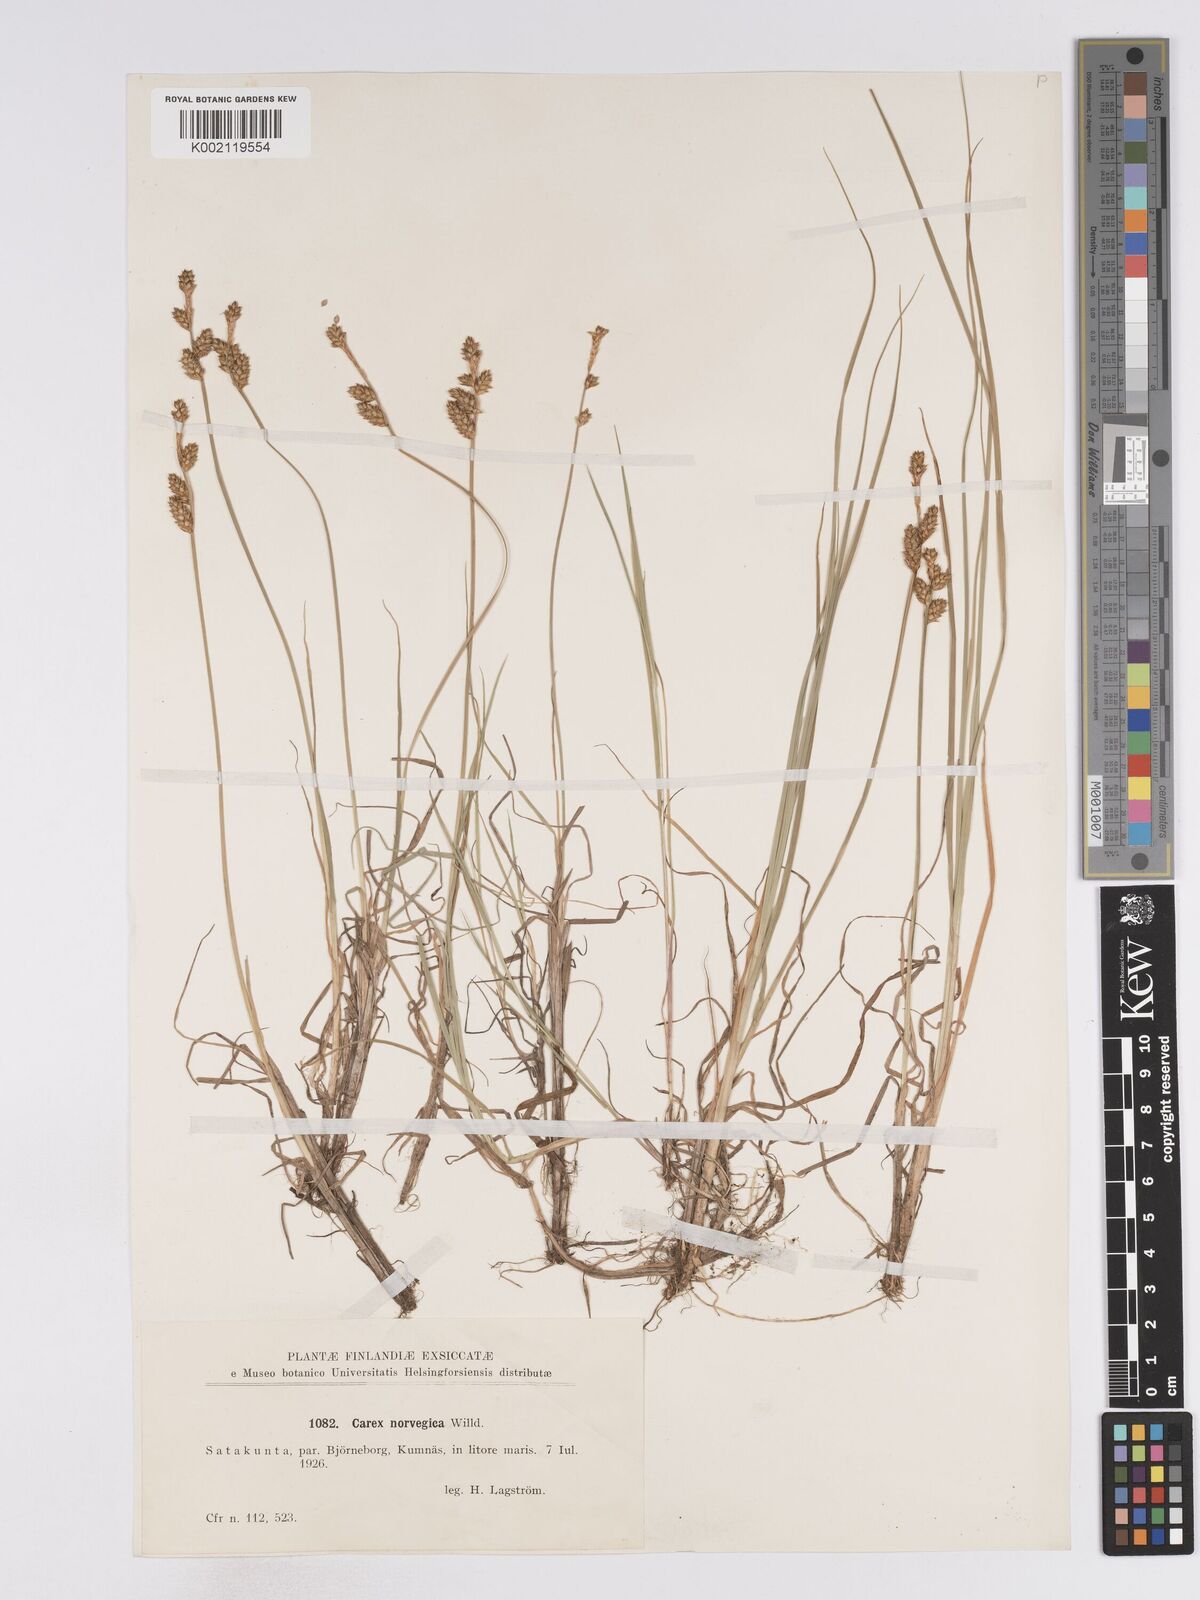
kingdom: Plantae
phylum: Tracheophyta
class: Liliopsida
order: Poales
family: Cyperaceae
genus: Carex
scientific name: Carex mackenziei
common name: Mackenzie's sedge
